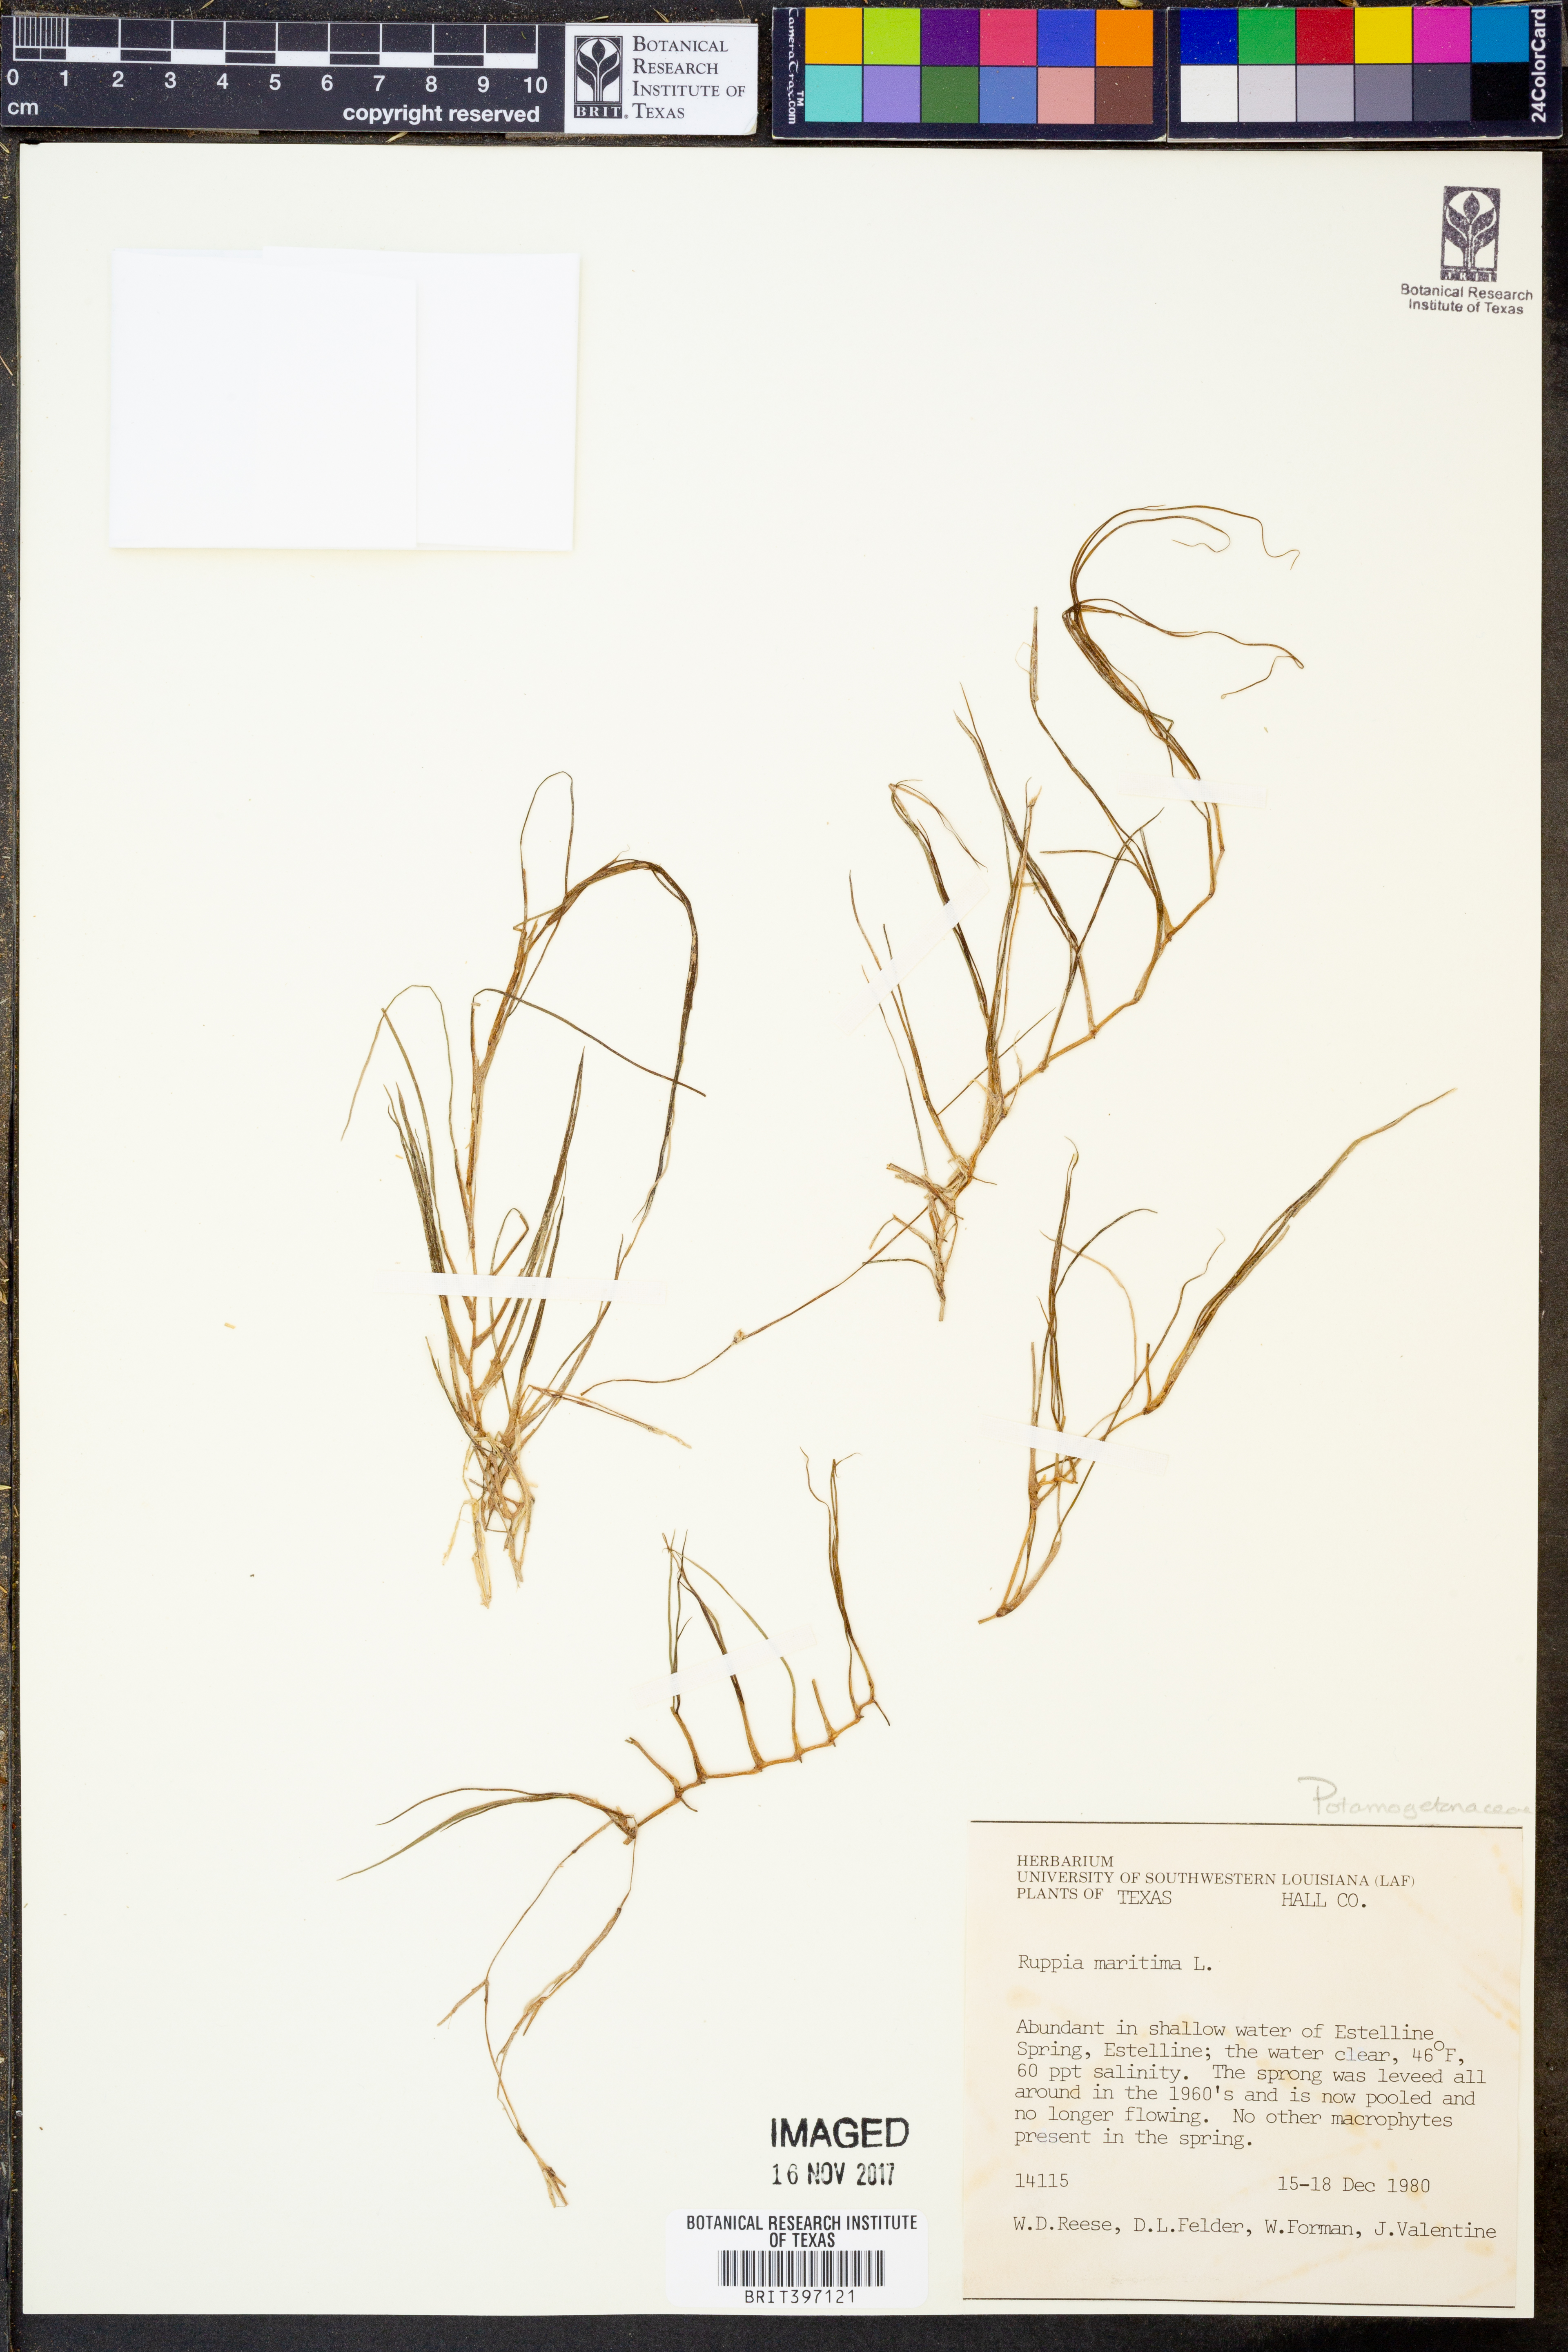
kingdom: Plantae
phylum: Tracheophyta
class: Liliopsida
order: Alismatales
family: Ruppiaceae
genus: Ruppia
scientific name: Ruppia maritima
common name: Beaked tasselweed
